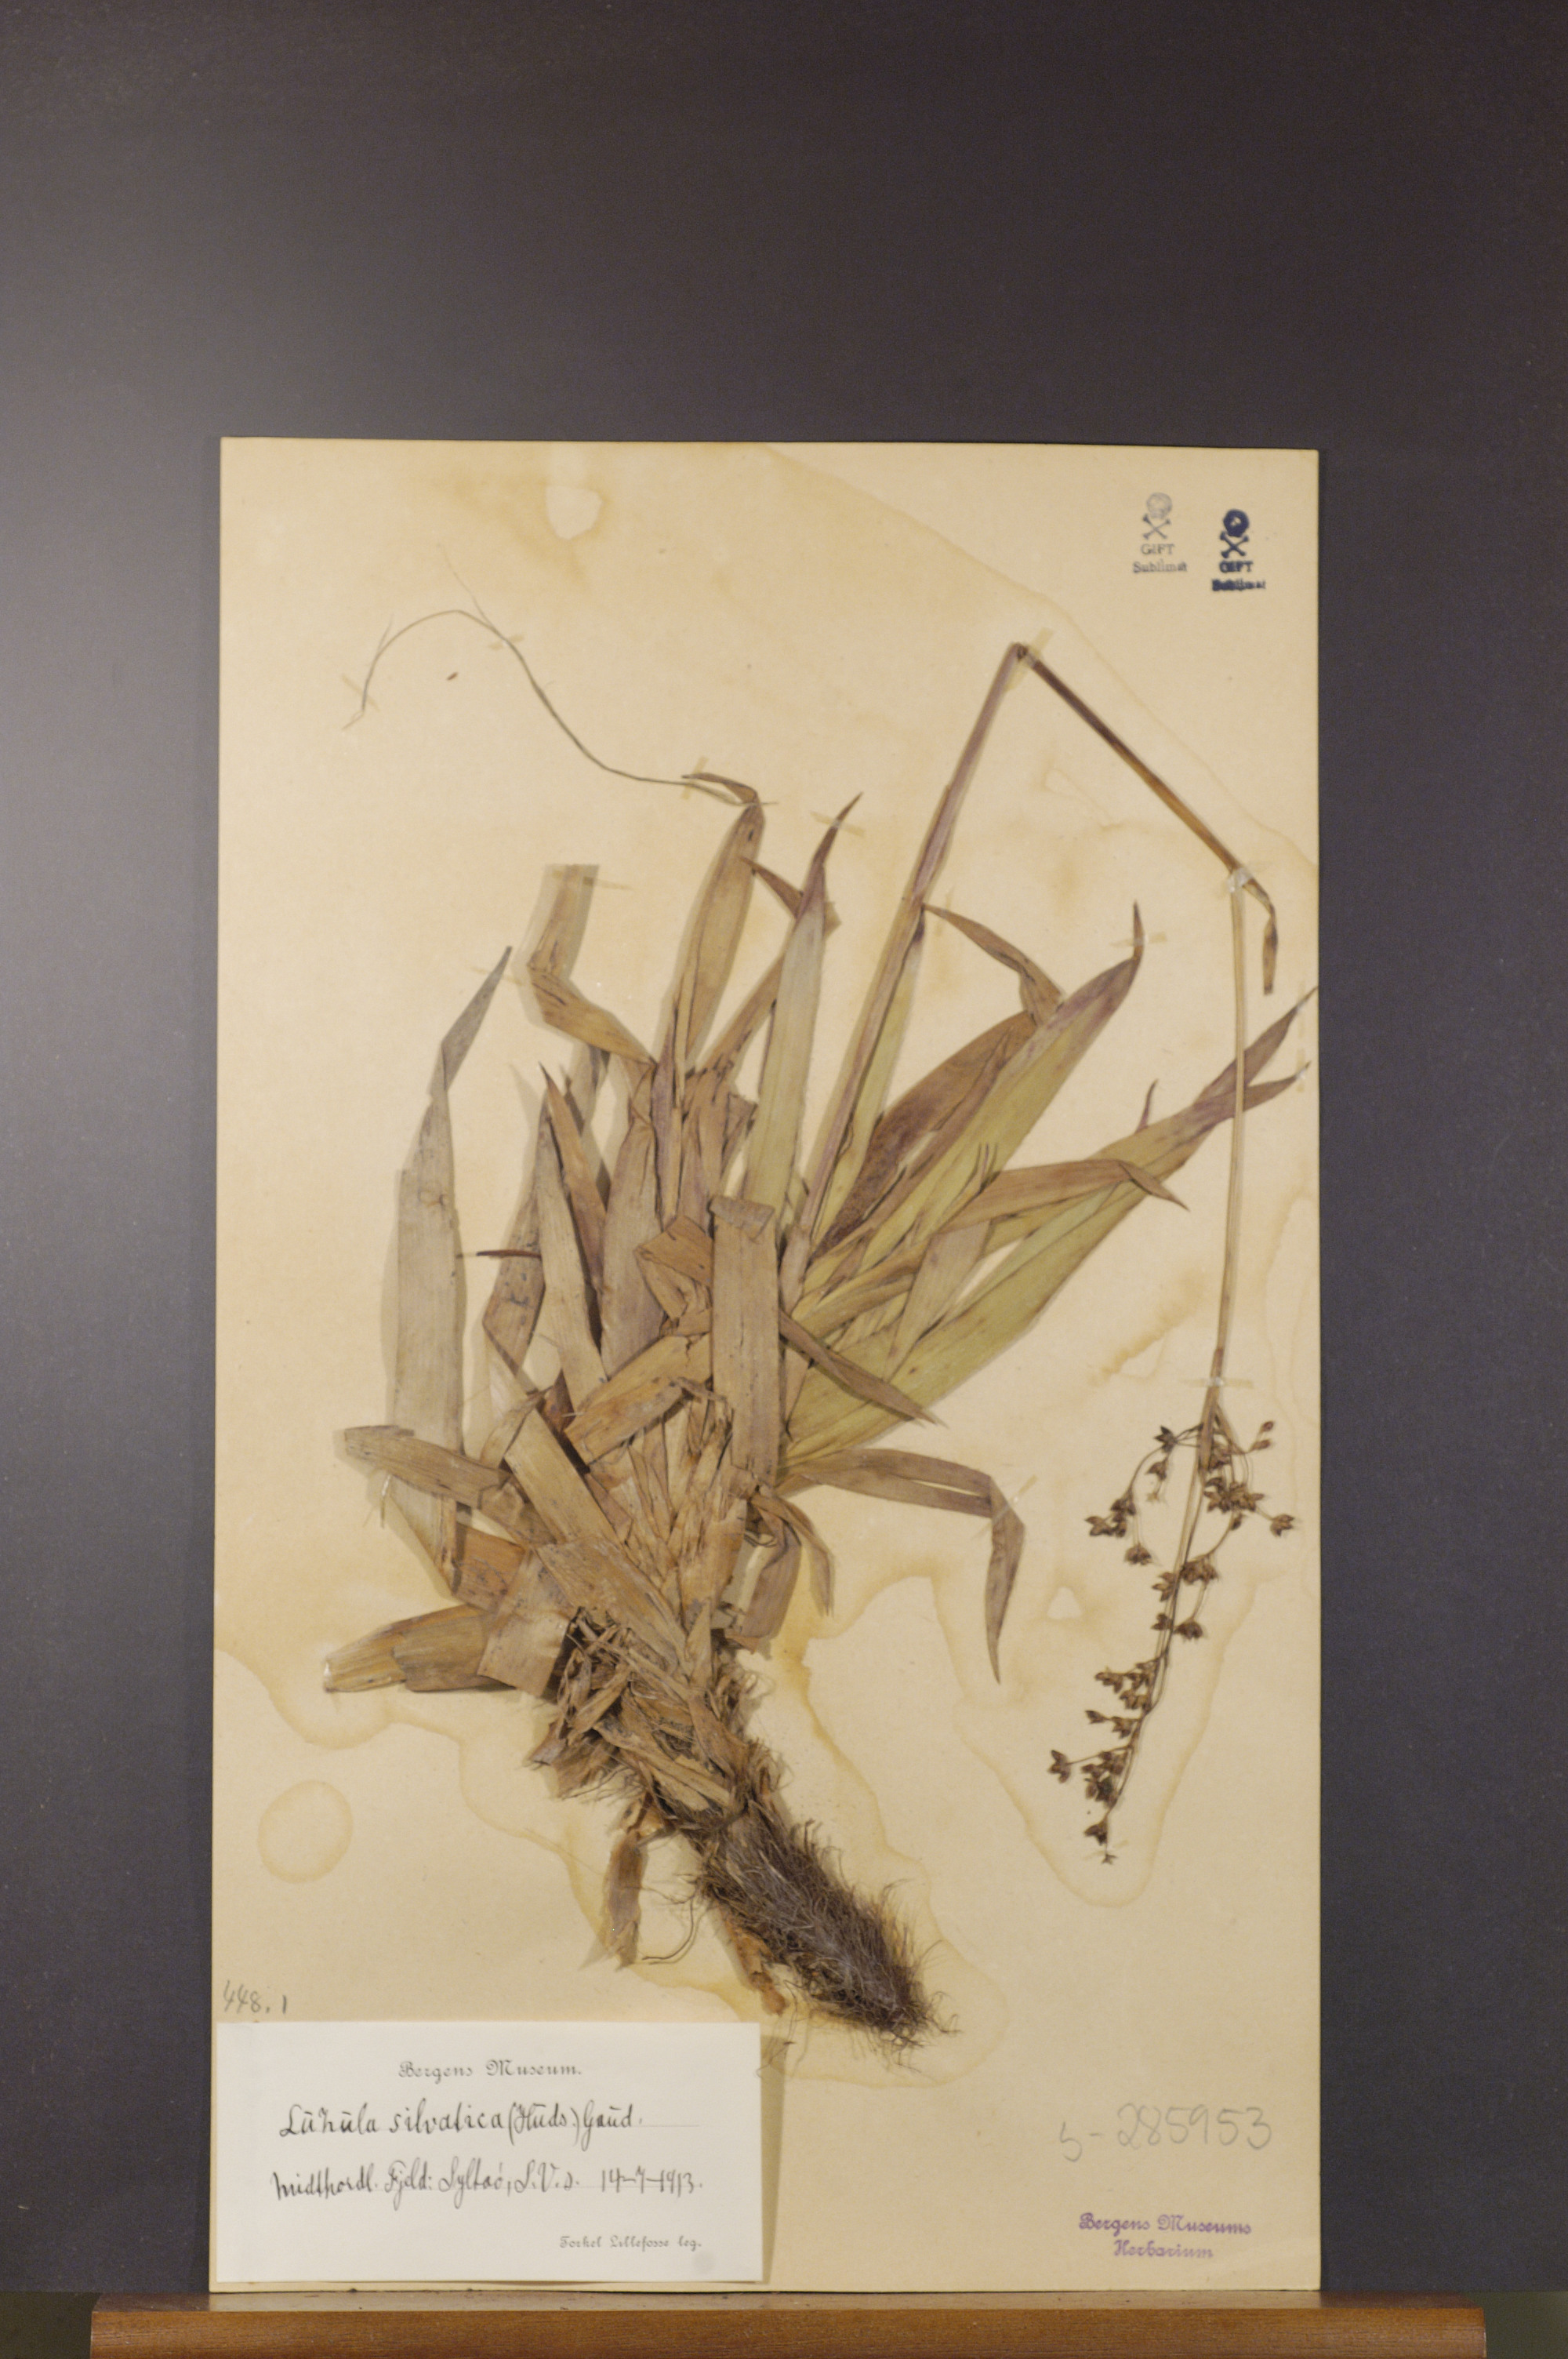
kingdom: Plantae
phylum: Tracheophyta
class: Liliopsida
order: Poales
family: Juncaceae
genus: Luzula
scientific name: Luzula sylvatica
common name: Great wood-rush
